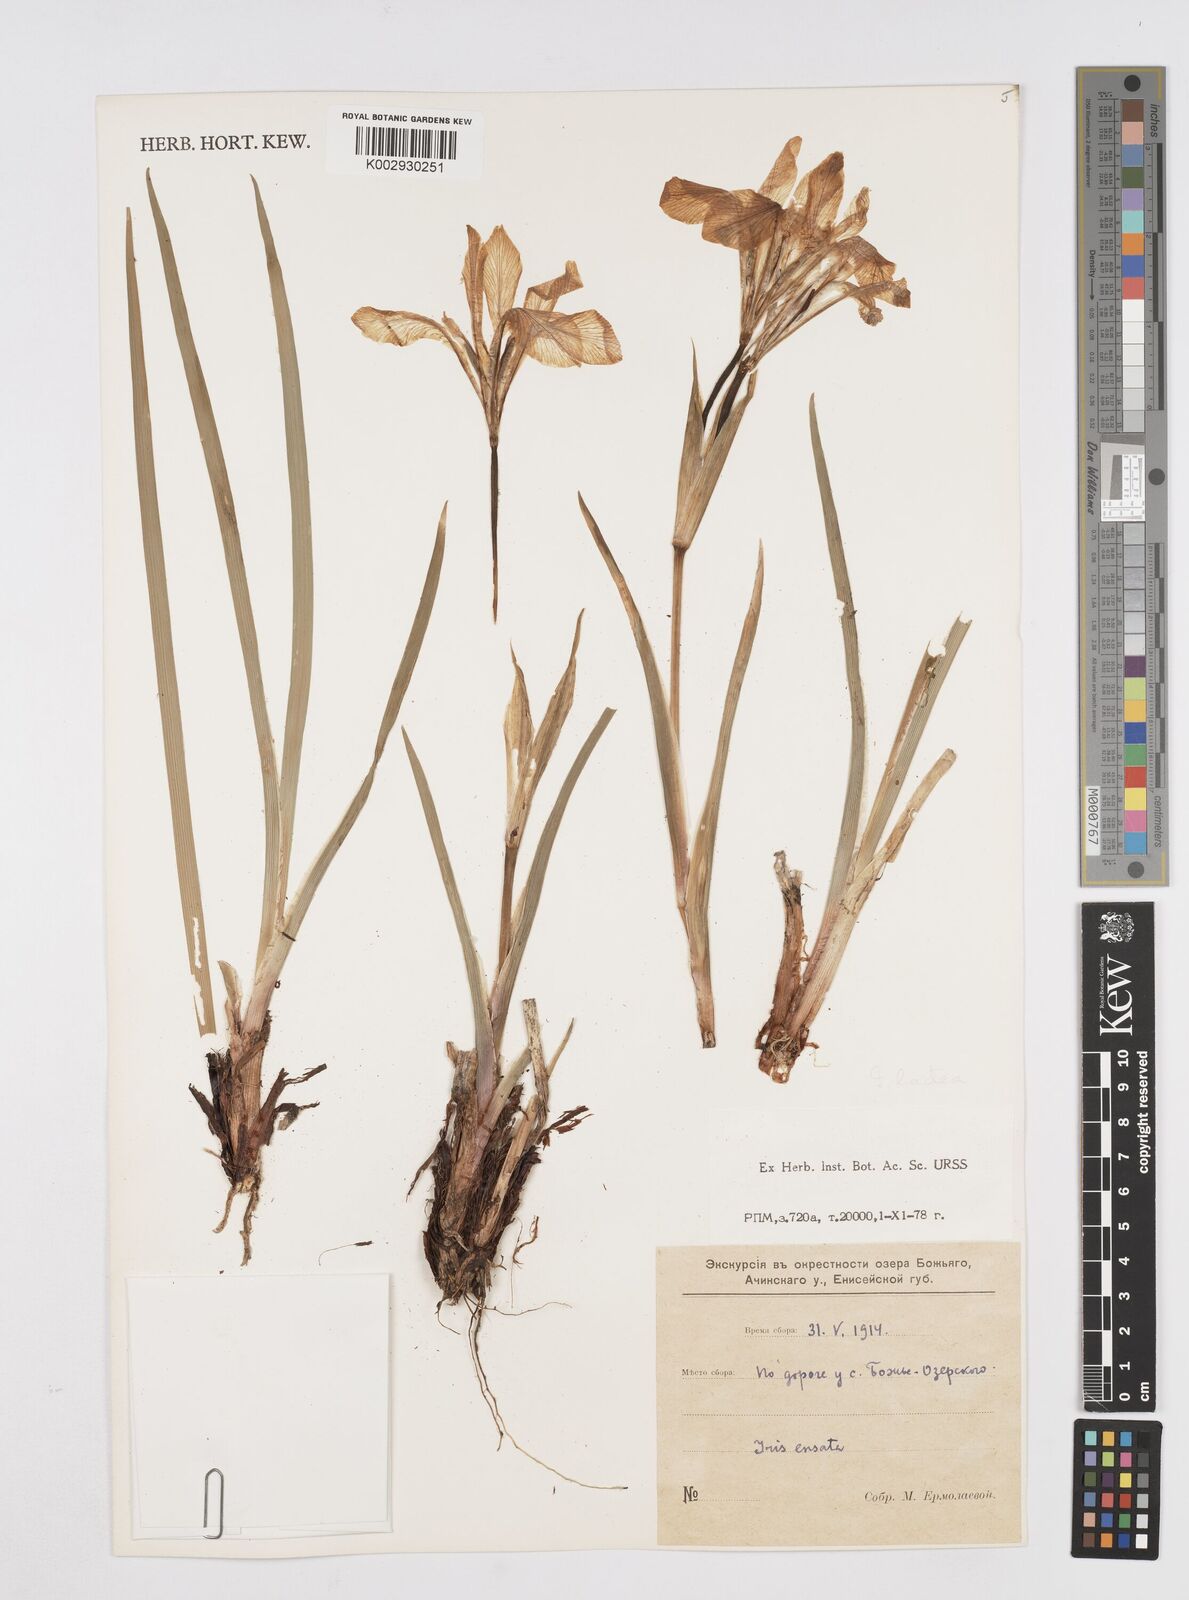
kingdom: Plantae
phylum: Tracheophyta
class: Liliopsida
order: Asparagales
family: Iridaceae
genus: Iris
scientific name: Iris lactea
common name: White-flower chinese iris
